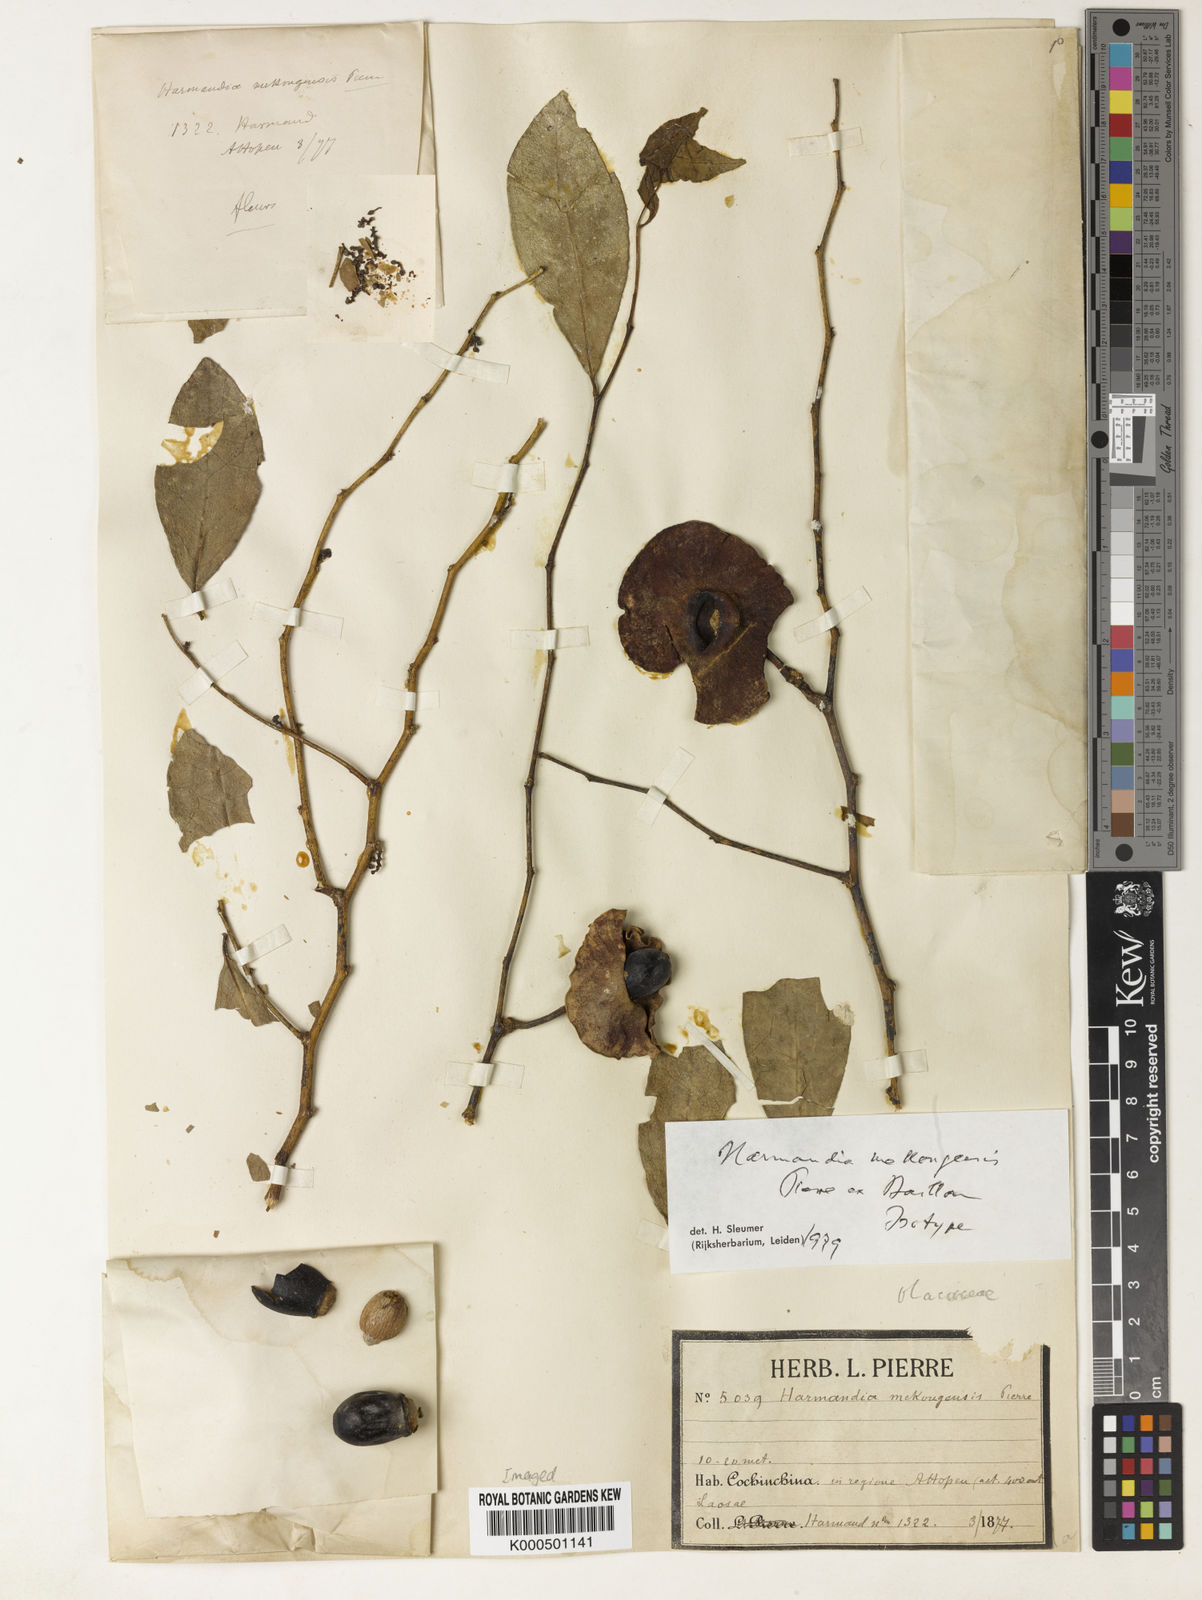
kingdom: Plantae
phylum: Tracheophyta
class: Magnoliopsida
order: Santalales
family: Aptandraceae
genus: Harmandia
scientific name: Harmandia mekongensis
